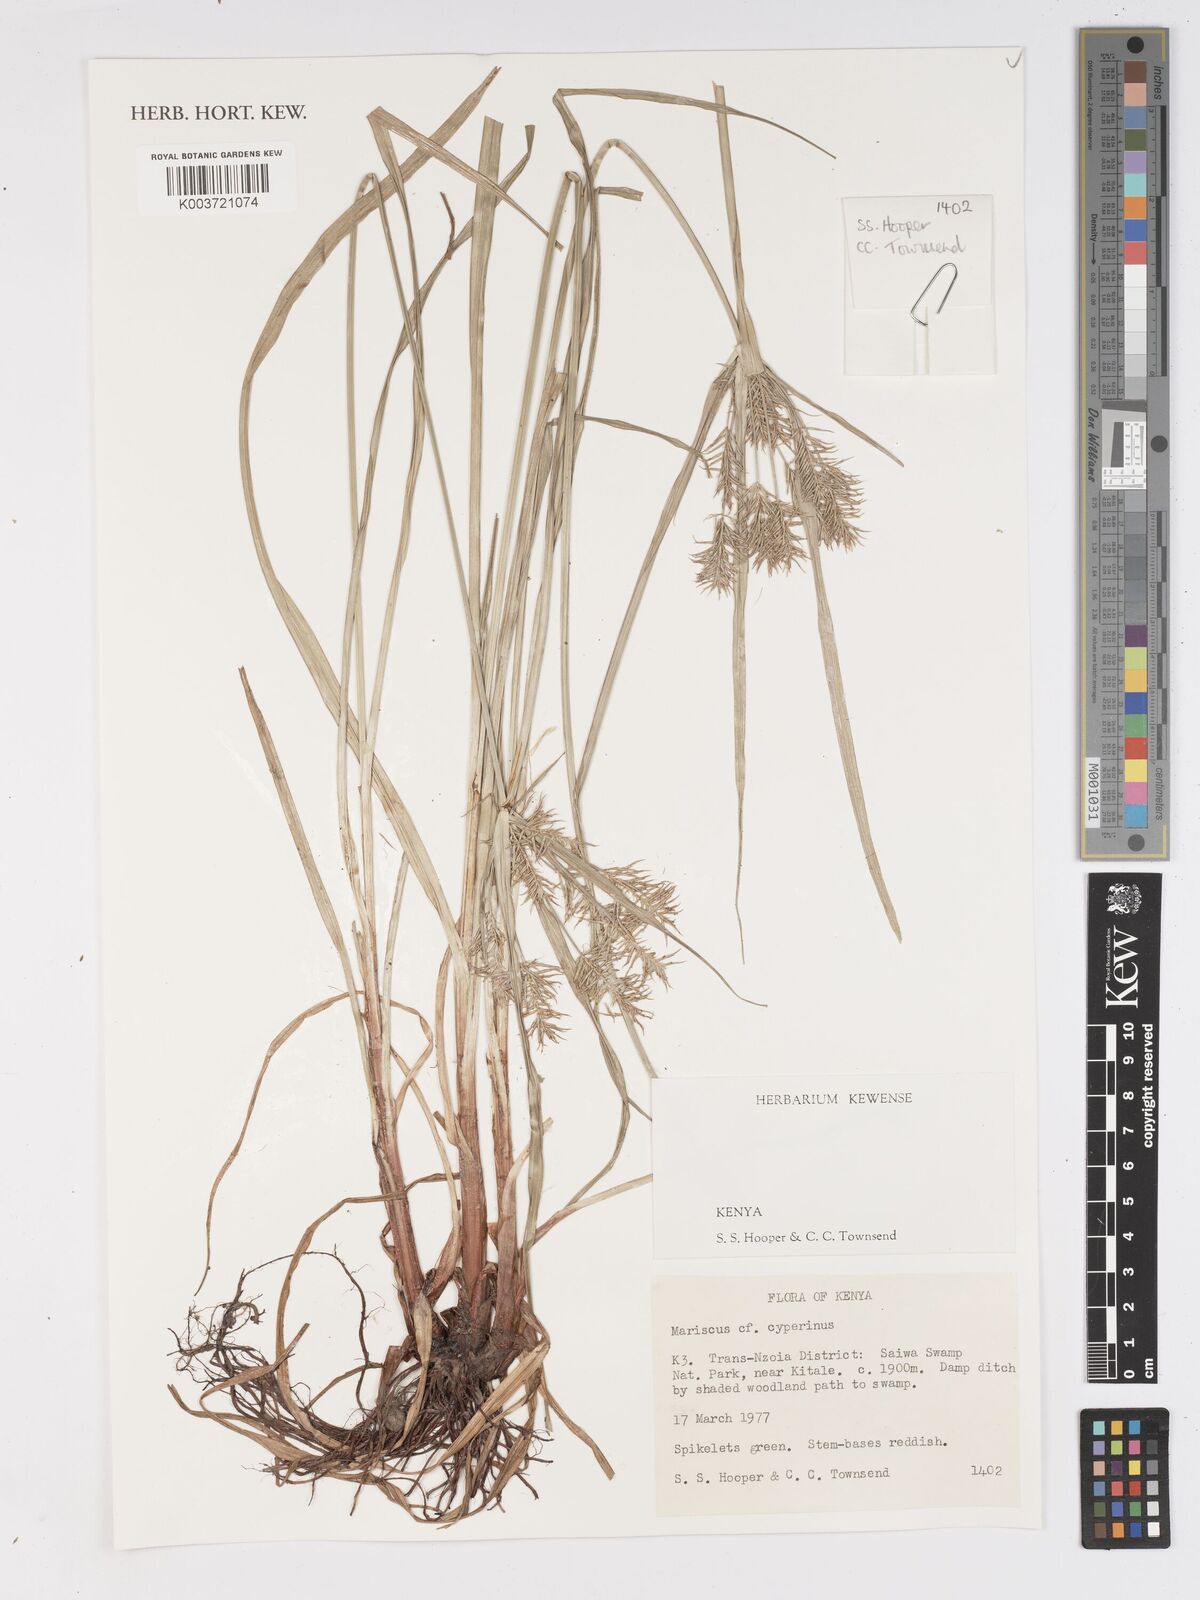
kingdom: Plantae
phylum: Tracheophyta
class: Liliopsida
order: Poales
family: Cyperaceae
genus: Cyperus
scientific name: Cyperus cyperinus
